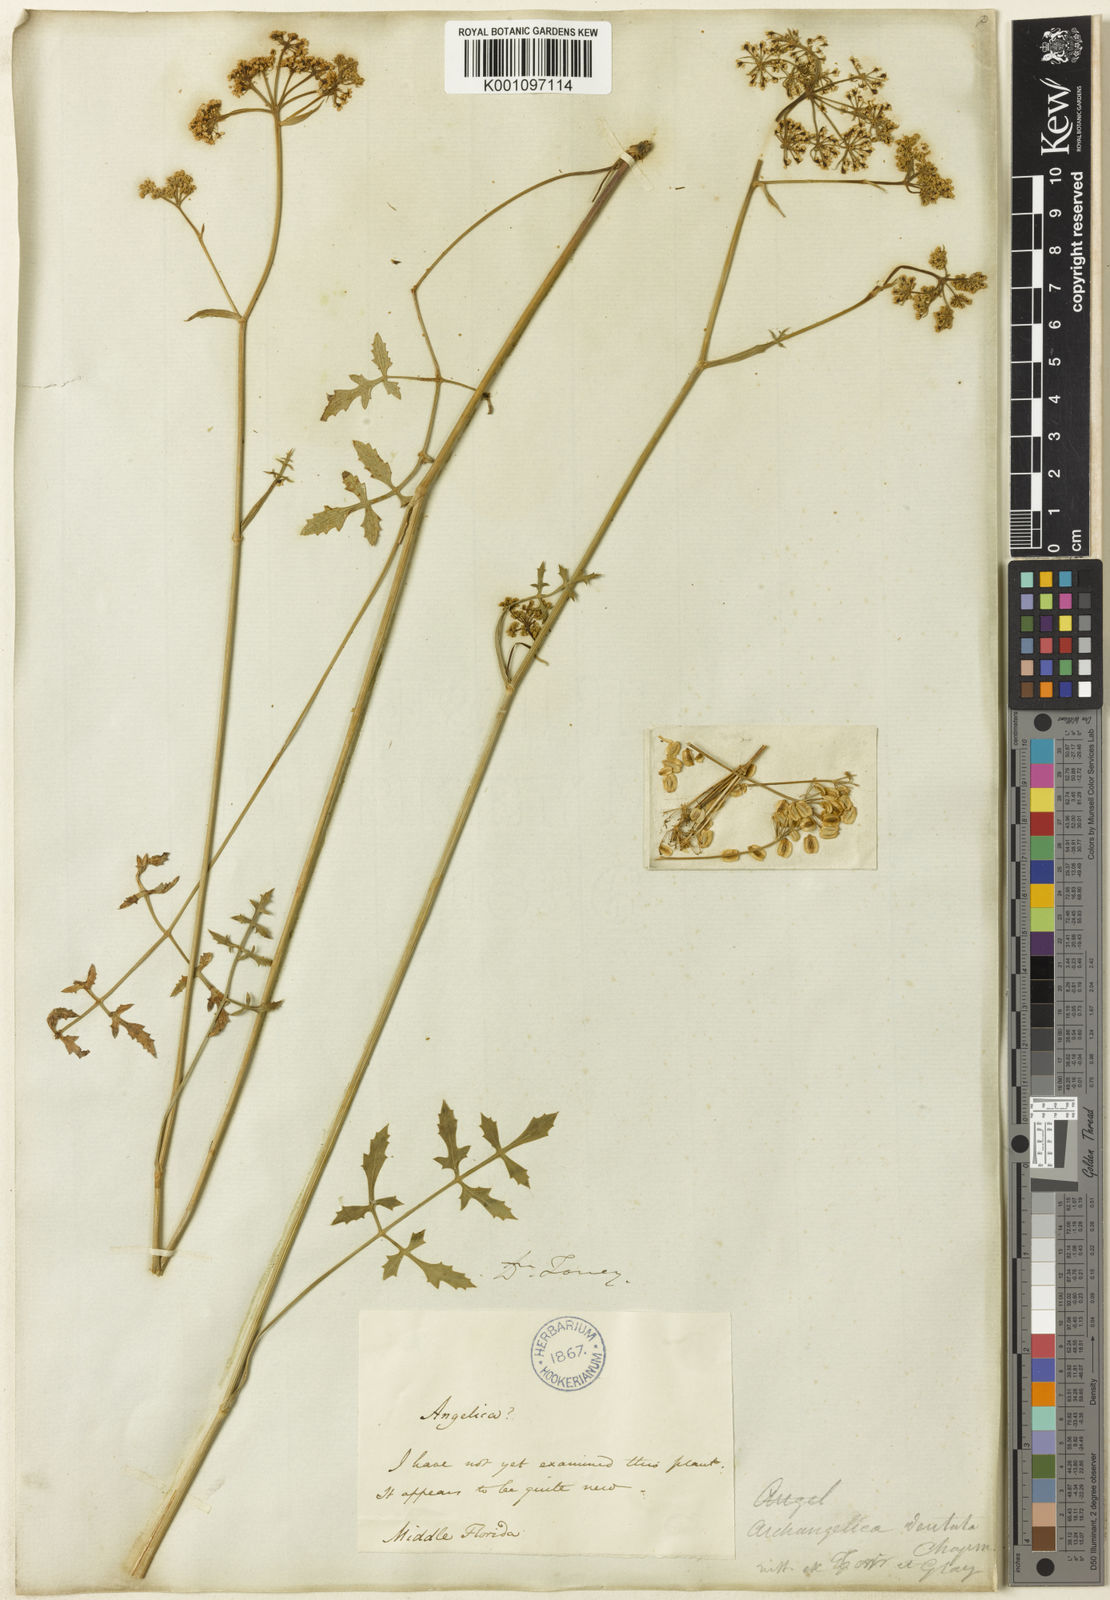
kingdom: Plantae
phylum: Tracheophyta
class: Magnoliopsida
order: Apiales
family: Apiaceae
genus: Angelica
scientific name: Angelica venenosa
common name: Hairy angelica
